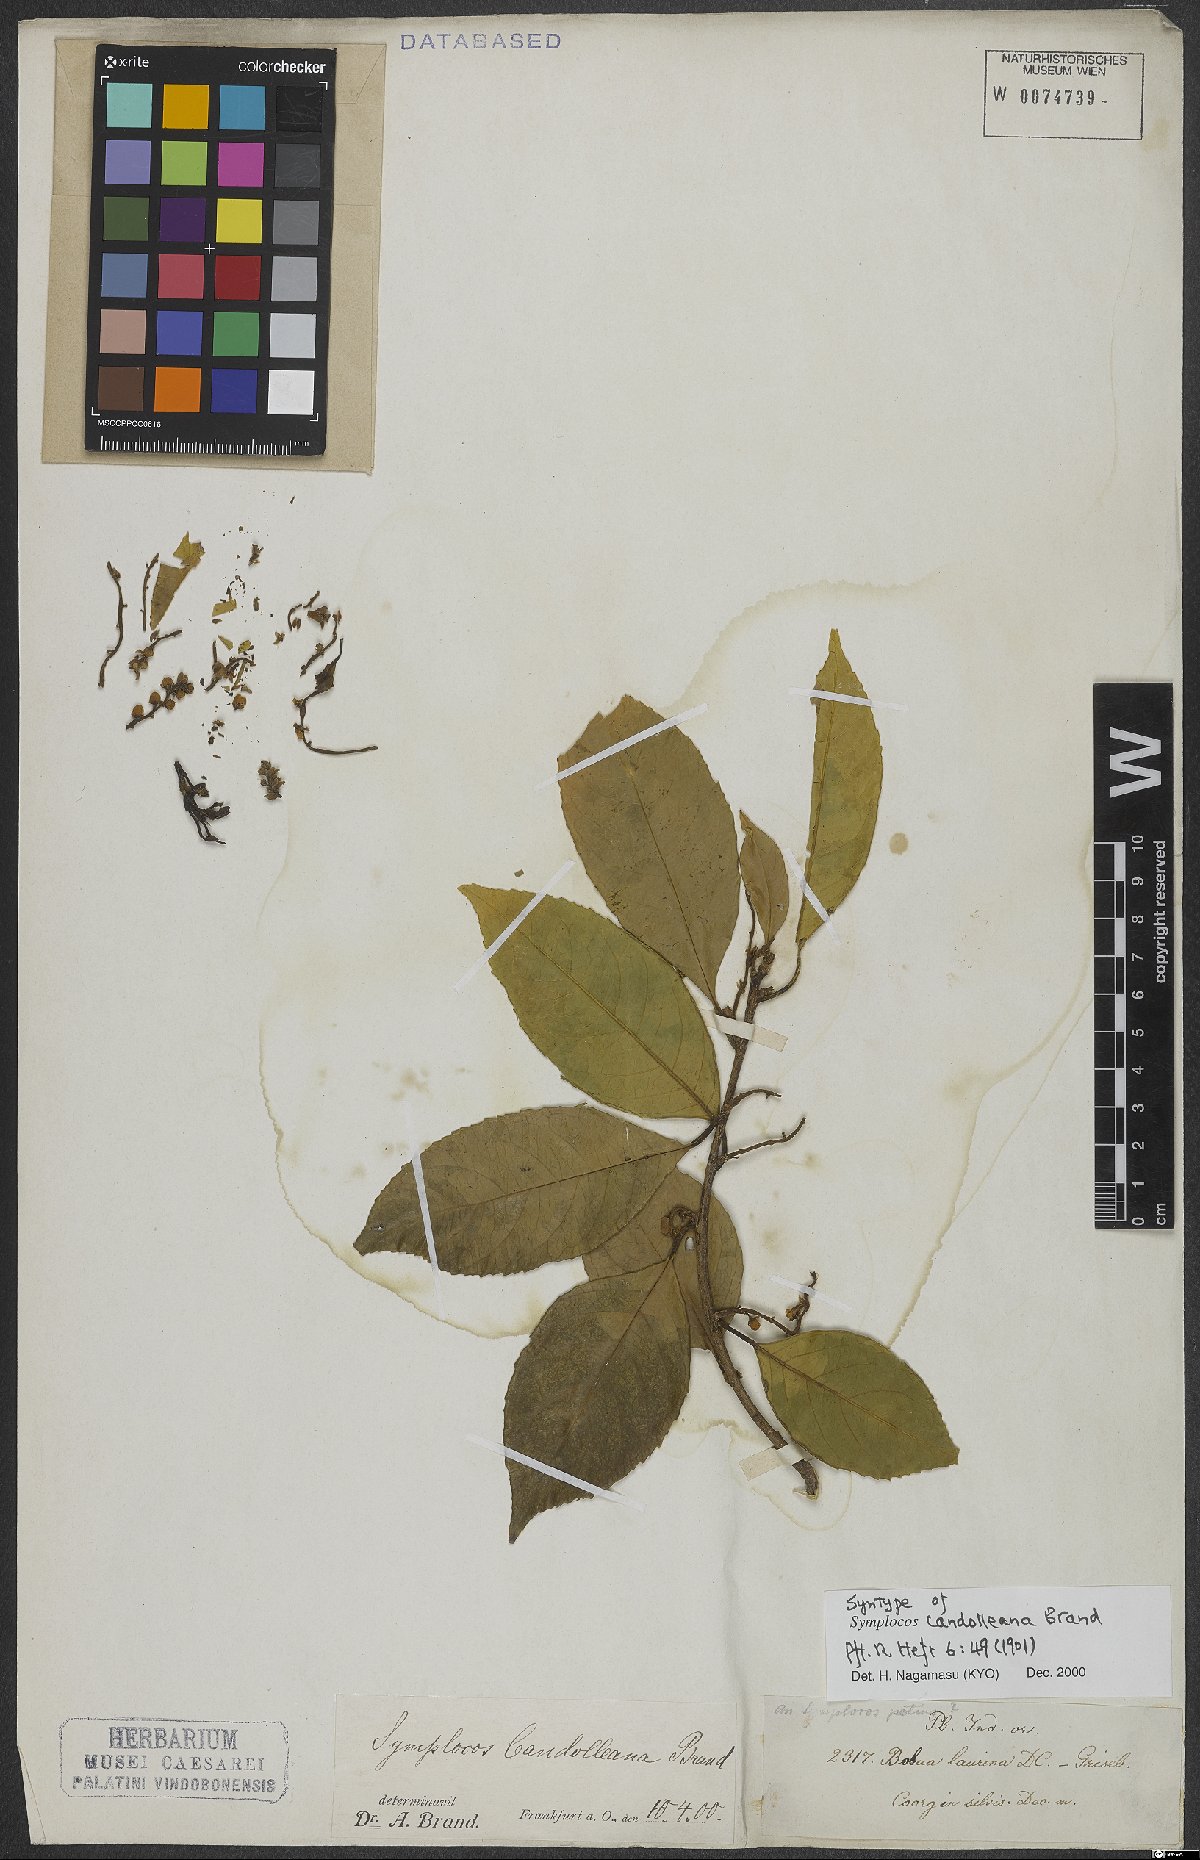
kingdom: Plantae
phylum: Tracheophyta
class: Magnoliopsida
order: Ericales
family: Symplocaceae
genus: Symplocos
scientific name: Symplocos ramosissima
